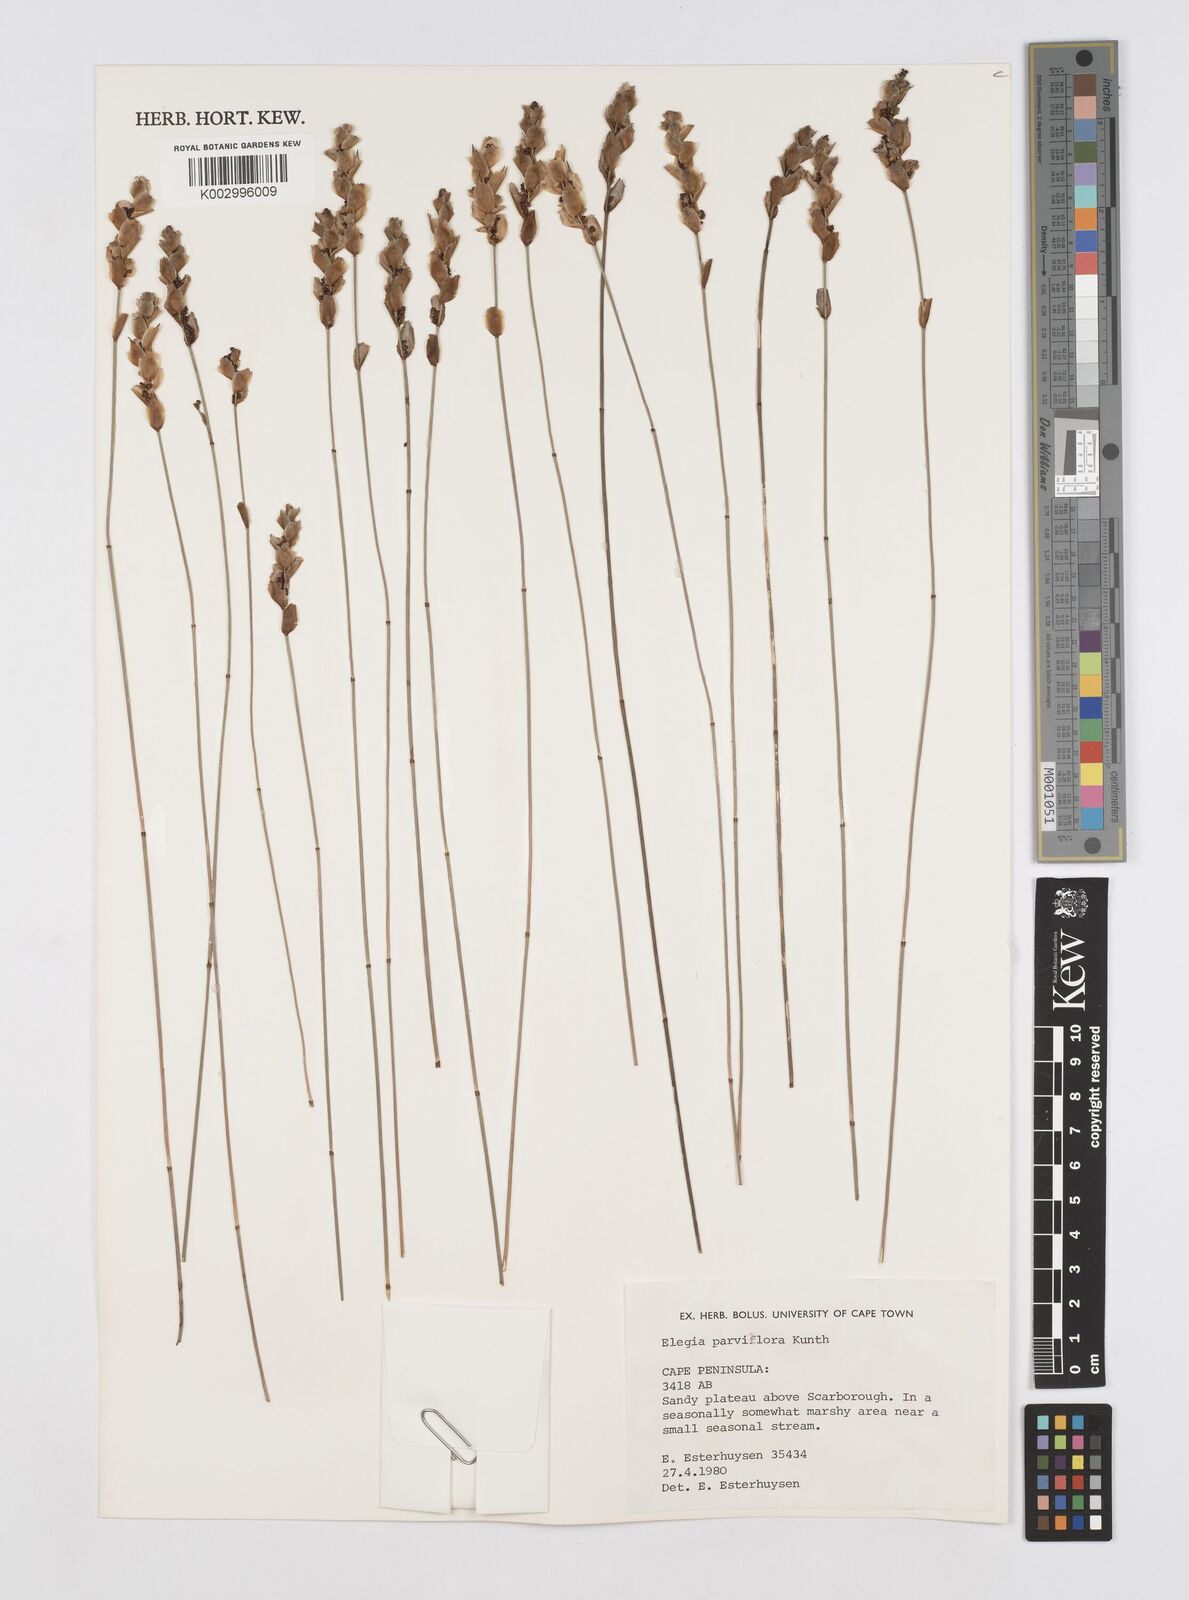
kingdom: Plantae
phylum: Tracheophyta
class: Liliopsida
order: Poales
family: Restionaceae
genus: Cannomois
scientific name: Cannomois parviflora
